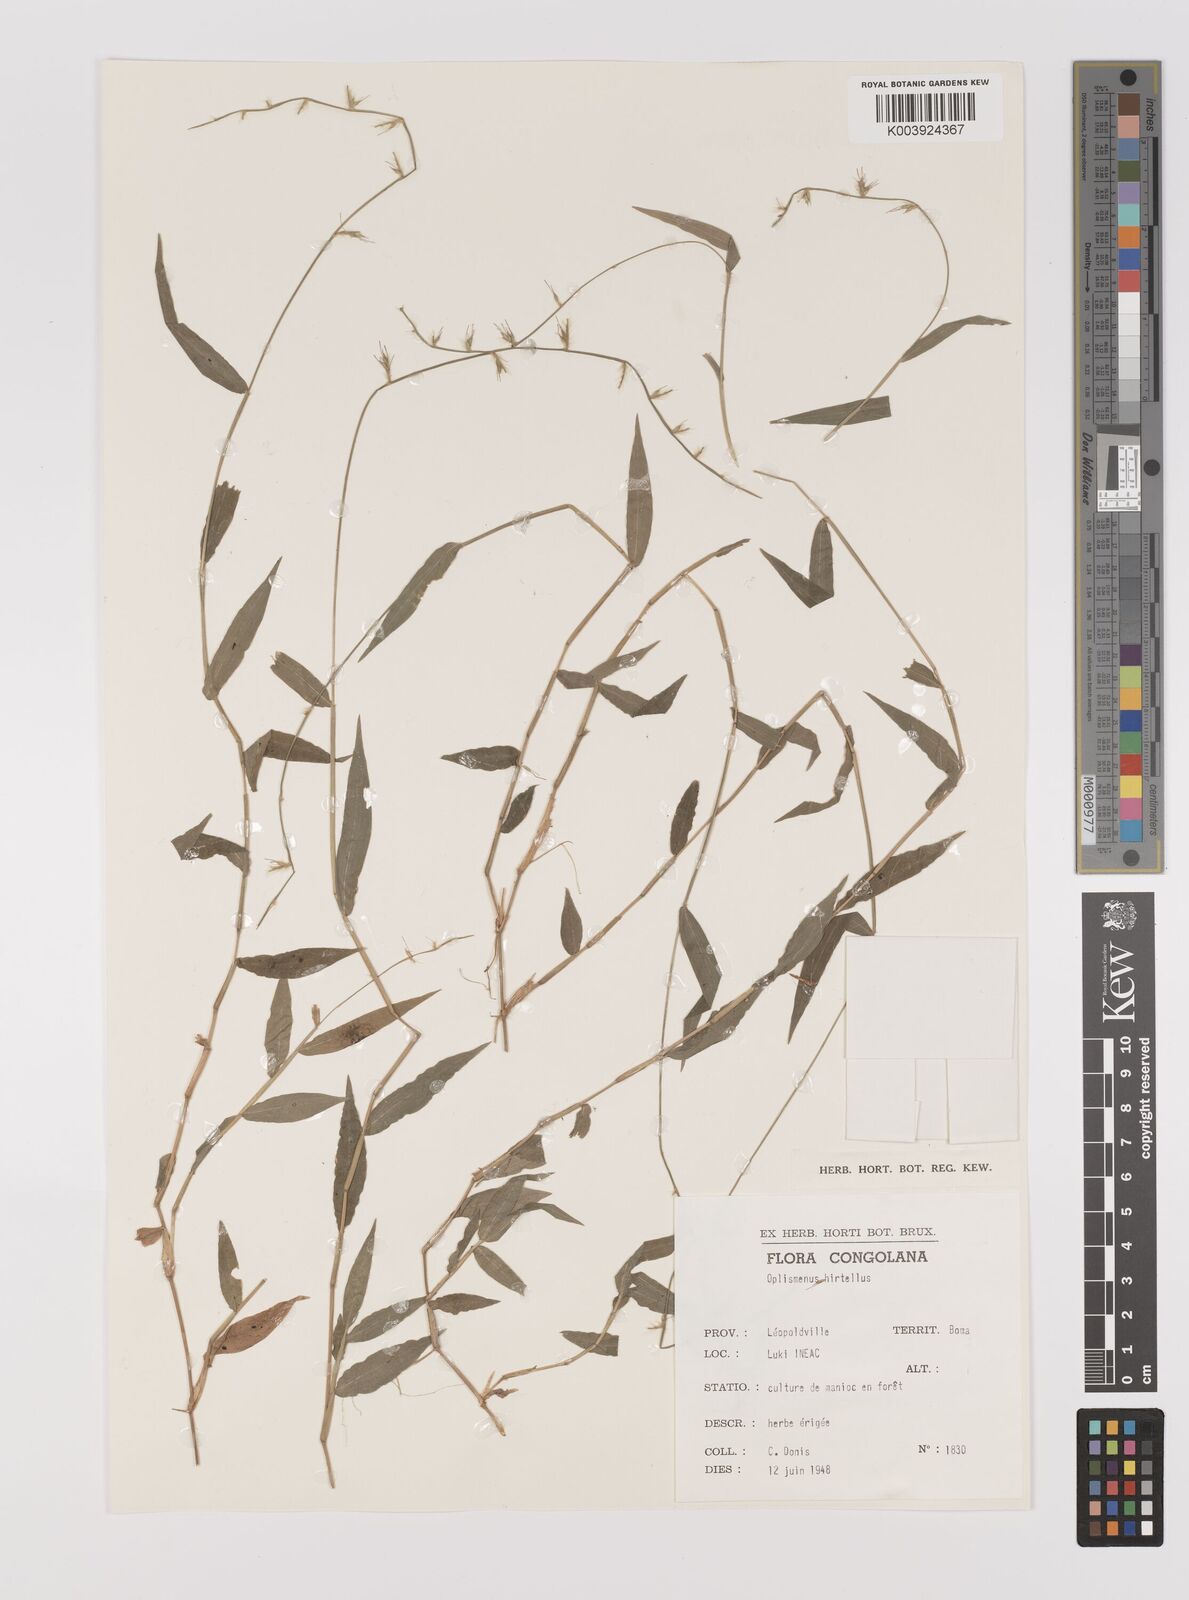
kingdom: Plantae
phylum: Tracheophyta
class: Liliopsida
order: Poales
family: Poaceae
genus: Oplismenus
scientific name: Oplismenus hirtellus
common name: Basketgrass
